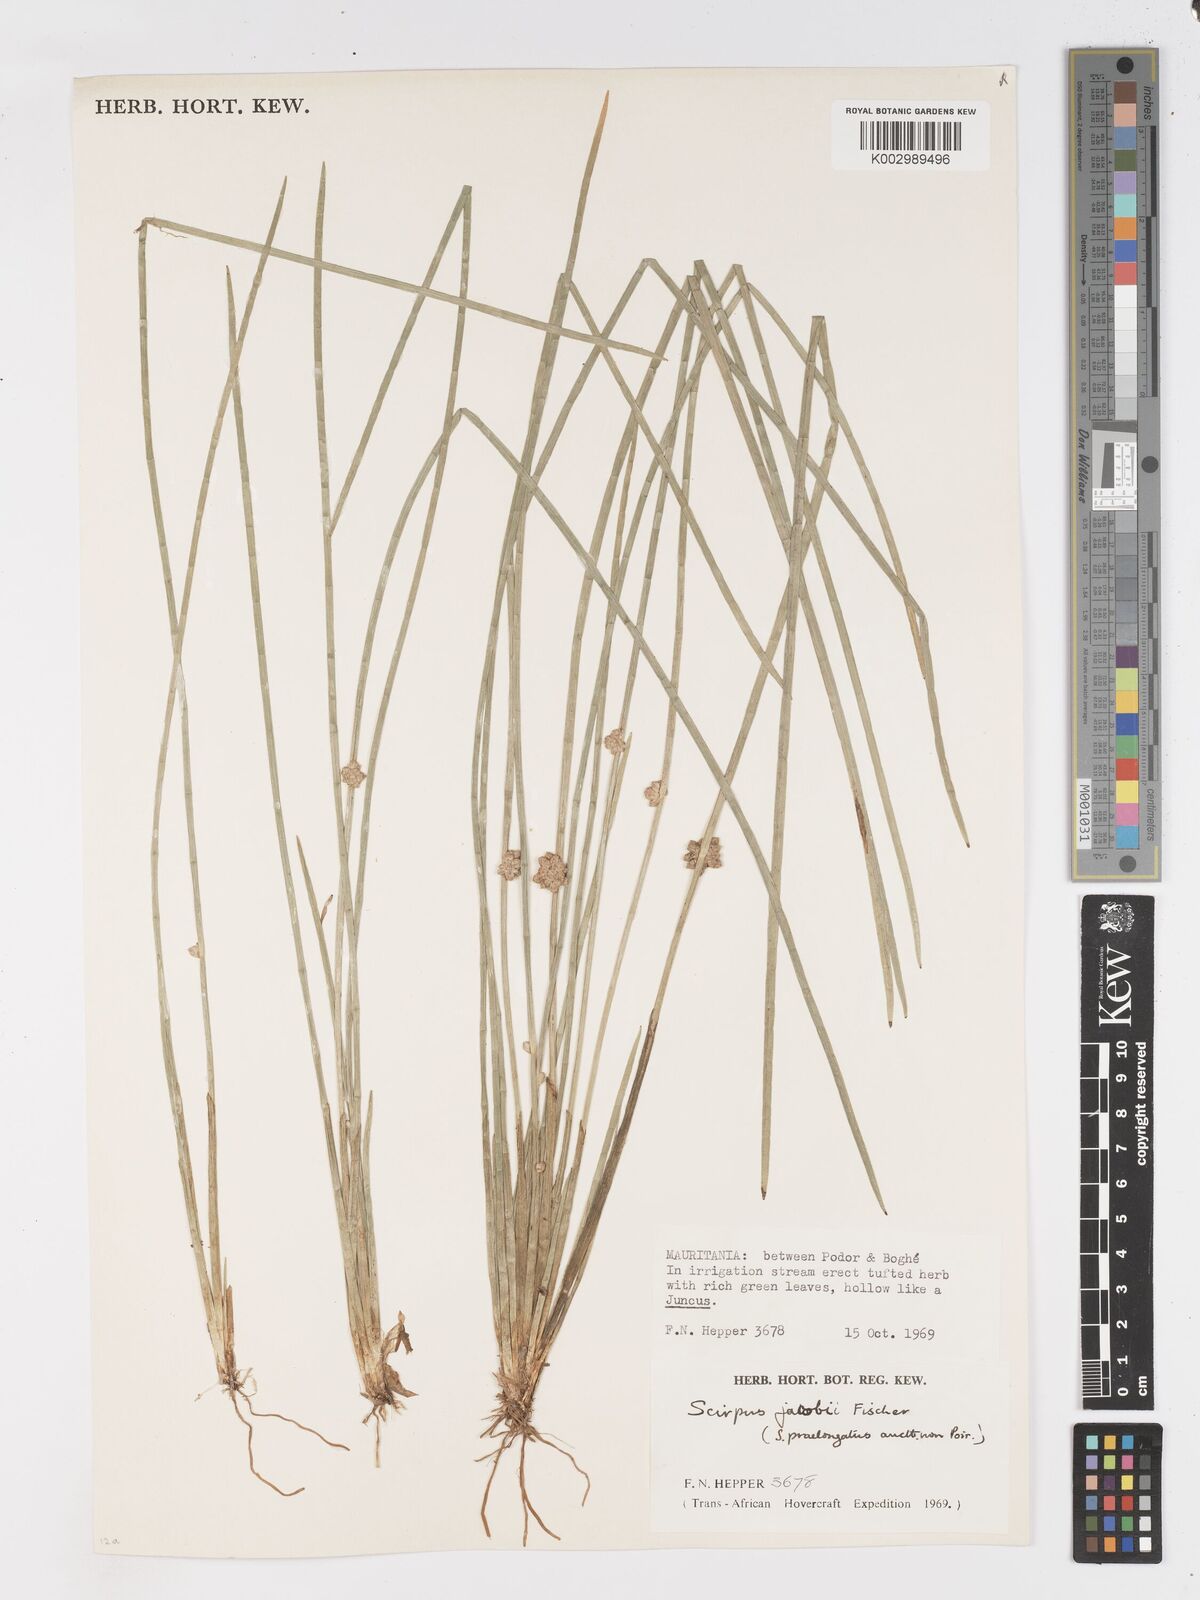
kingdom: Plantae
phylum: Tracheophyta
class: Liliopsida
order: Poales
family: Cyperaceae
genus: Schoenoplectiella
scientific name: Schoenoplectiella senegalensis
